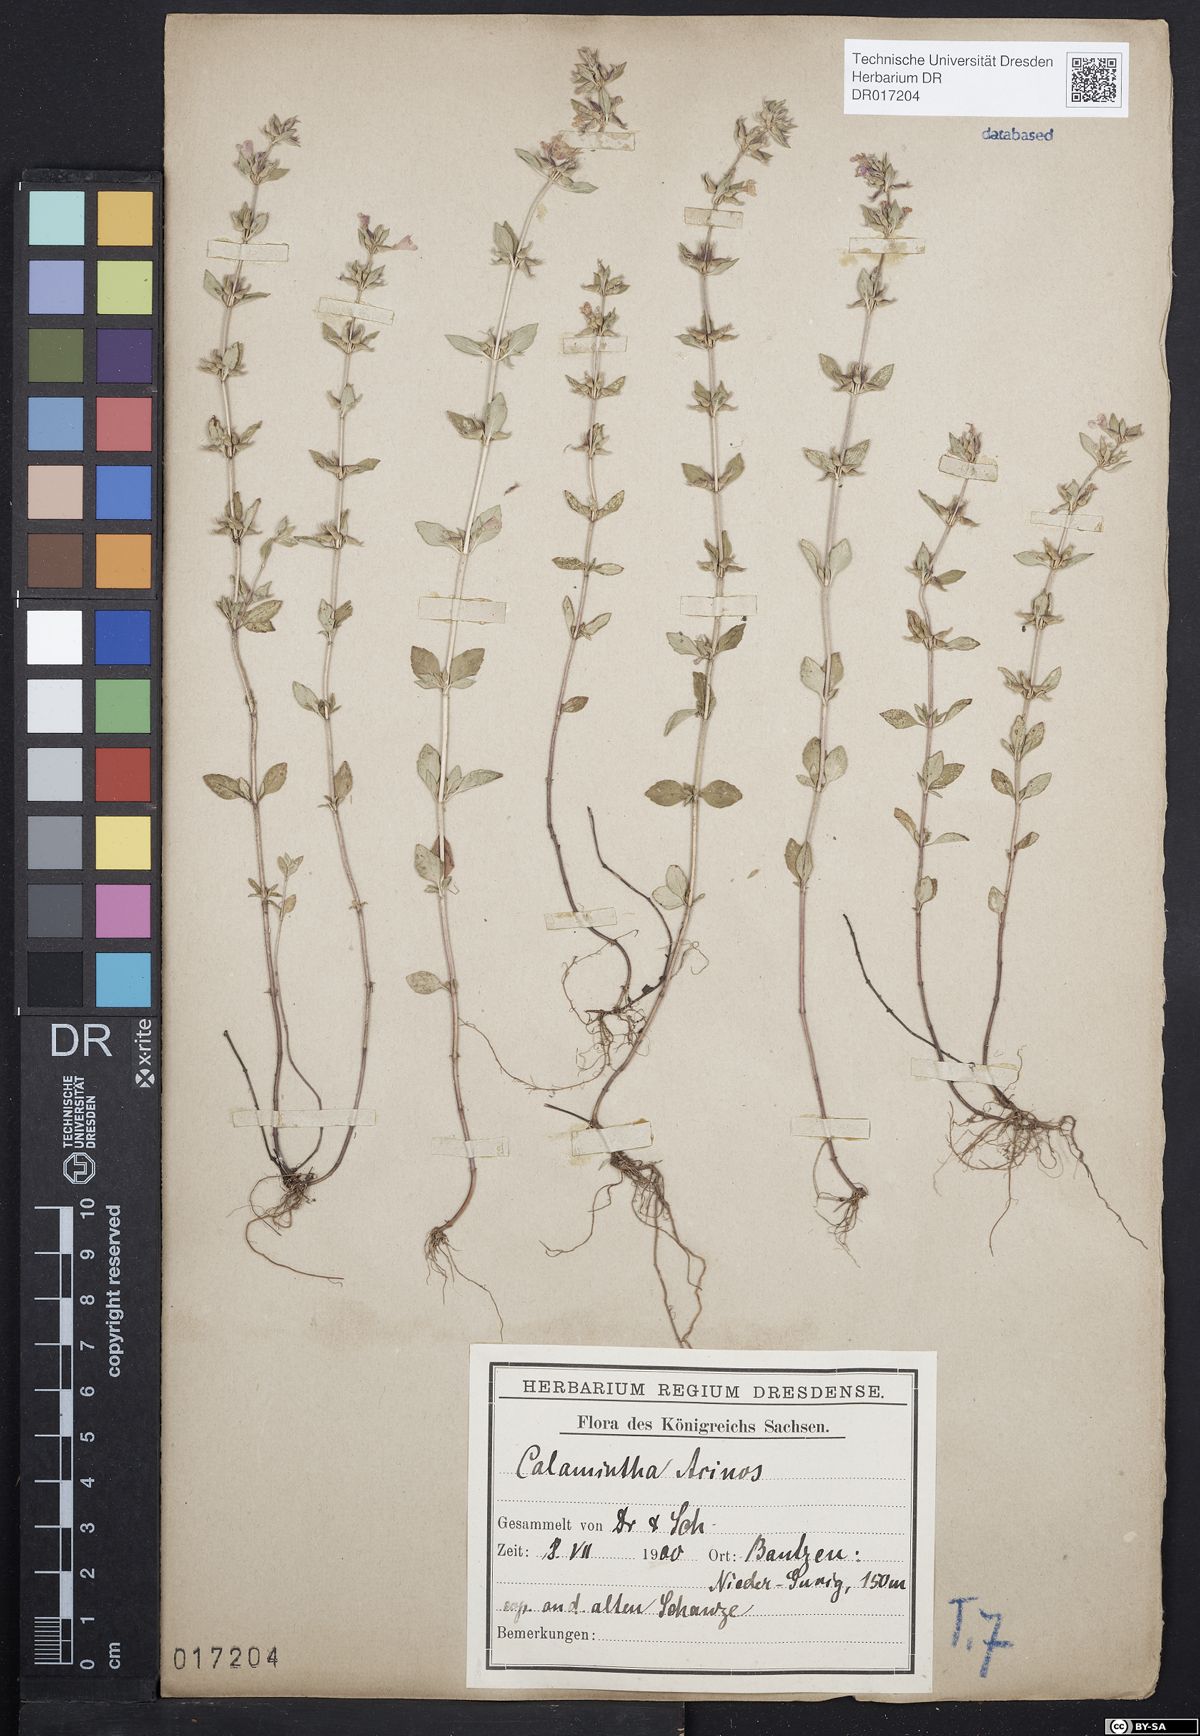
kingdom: Plantae
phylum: Tracheophyta
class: Magnoliopsida
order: Lamiales
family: Lamiaceae
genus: Clinopodium
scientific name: Clinopodium acinos
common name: Basil thyme
